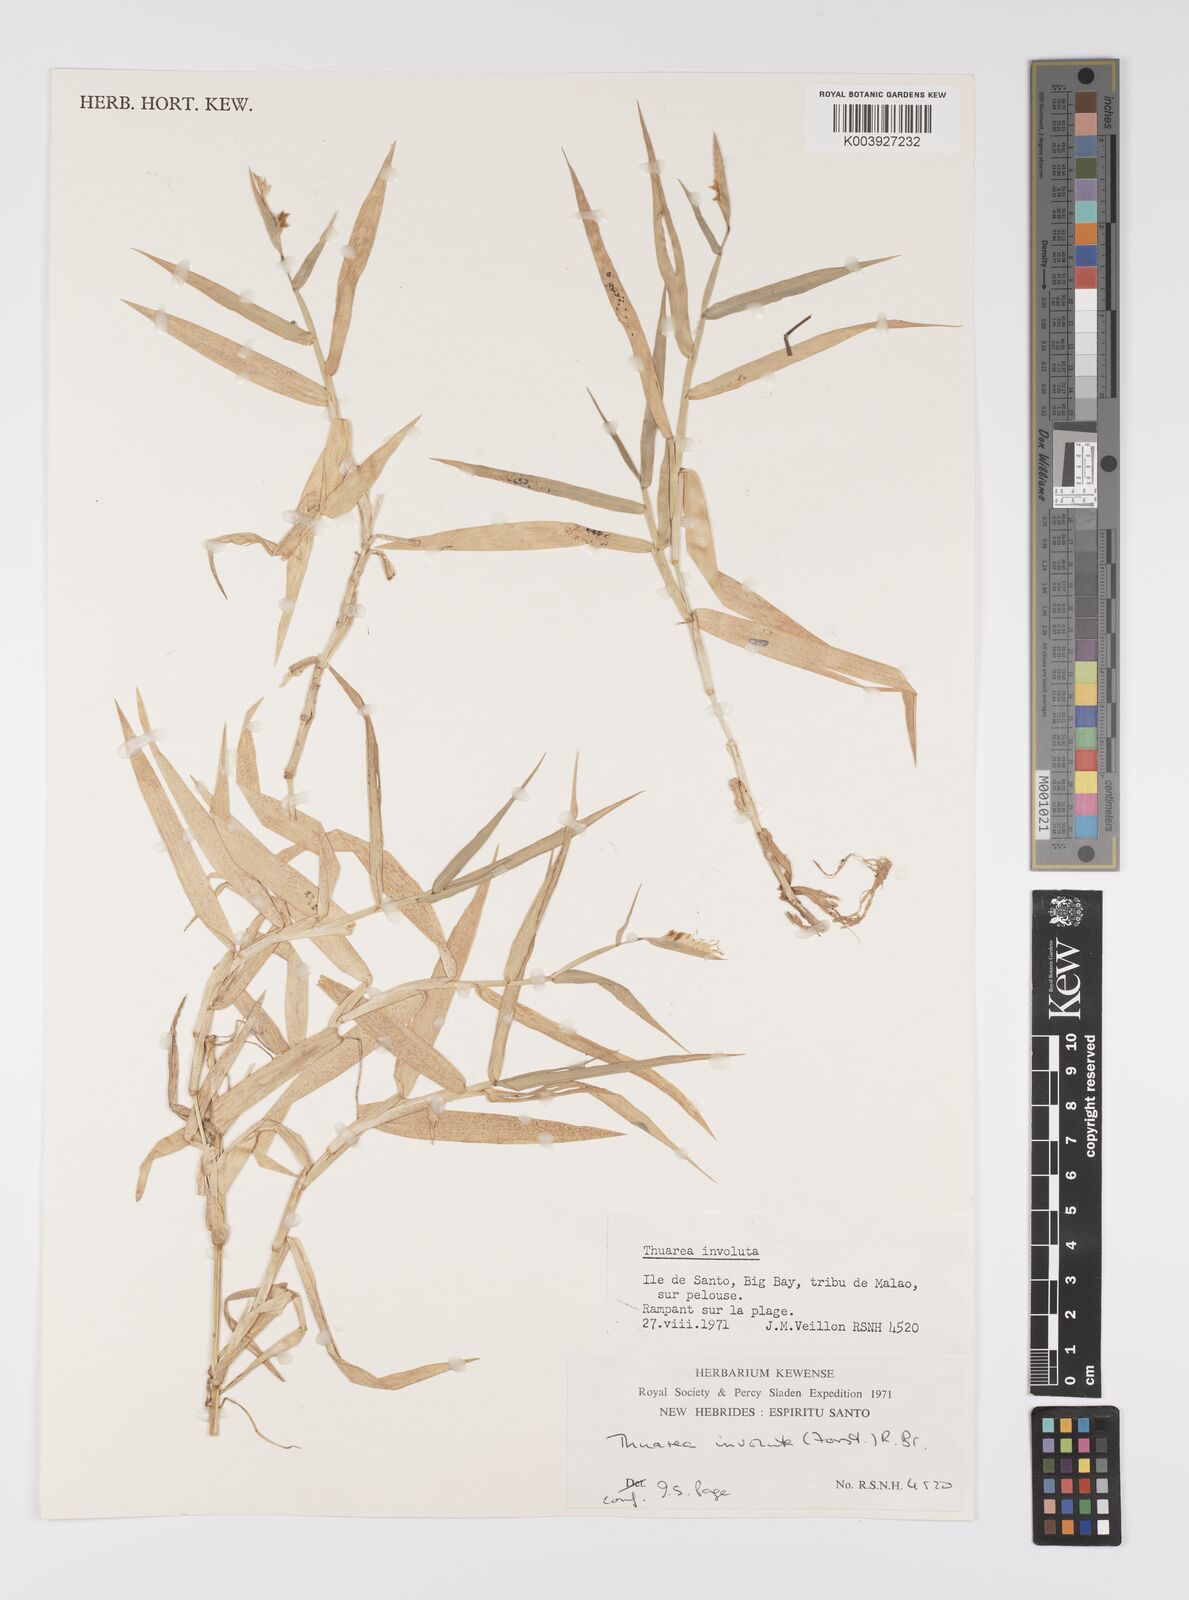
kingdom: Plantae
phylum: Tracheophyta
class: Liliopsida
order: Poales
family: Poaceae
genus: Thuarea
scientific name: Thuarea involuta
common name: Tropical beach grass
